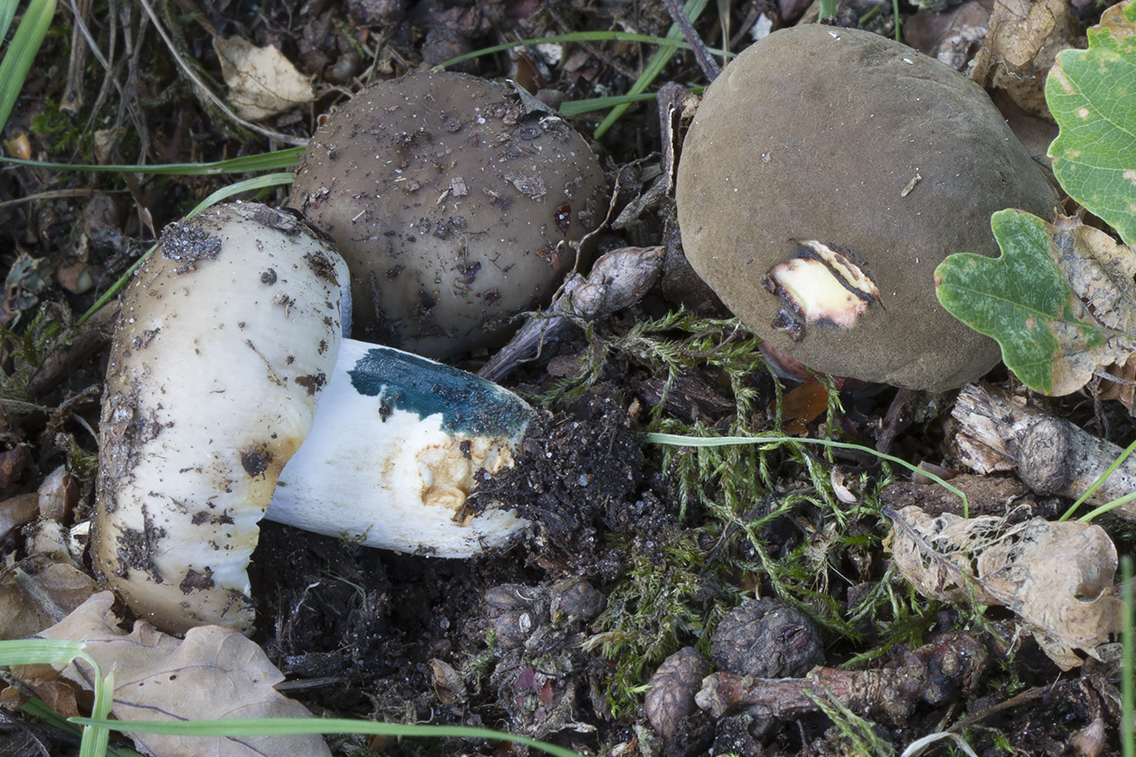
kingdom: Fungi
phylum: Basidiomycota
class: Agaricomycetes
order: Russulales
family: Russulaceae
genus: Russula
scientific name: Russula amoenolens
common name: skarp kam-skørhat
